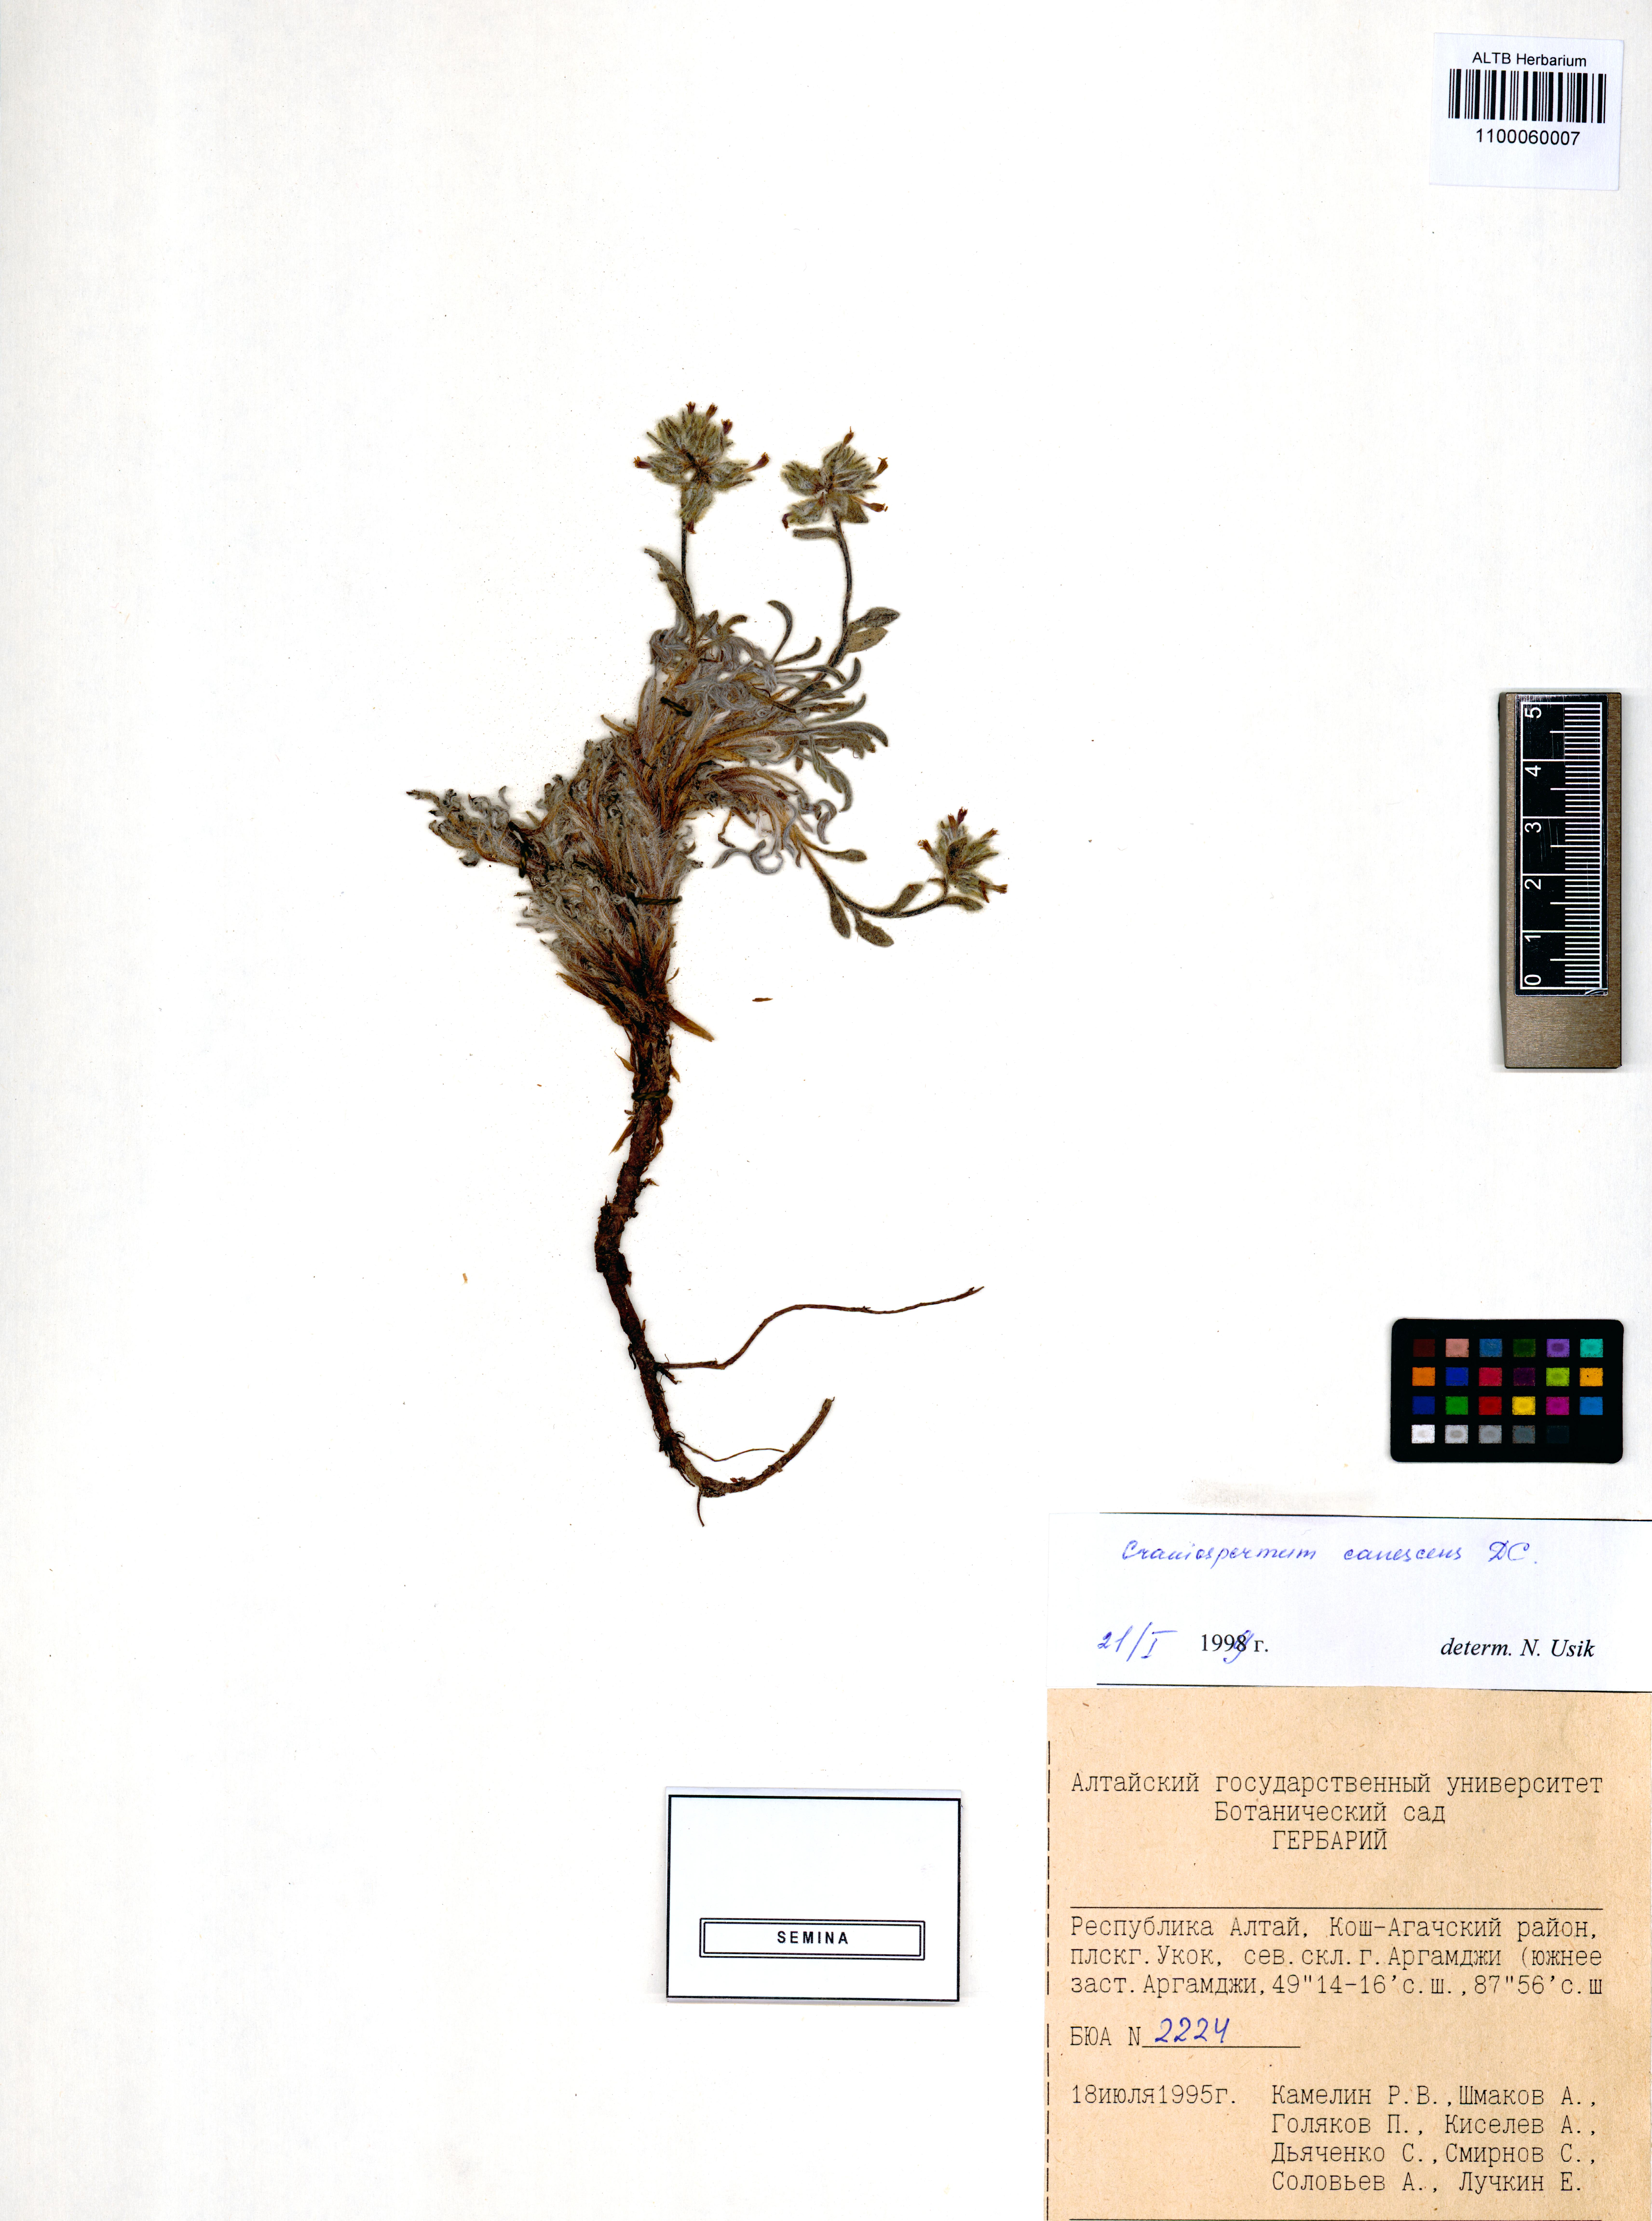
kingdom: Plantae
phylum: Tracheophyta
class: Magnoliopsida
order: Boraginales
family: Boraginaceae
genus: Craniospermum
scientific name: Craniospermum canescens
